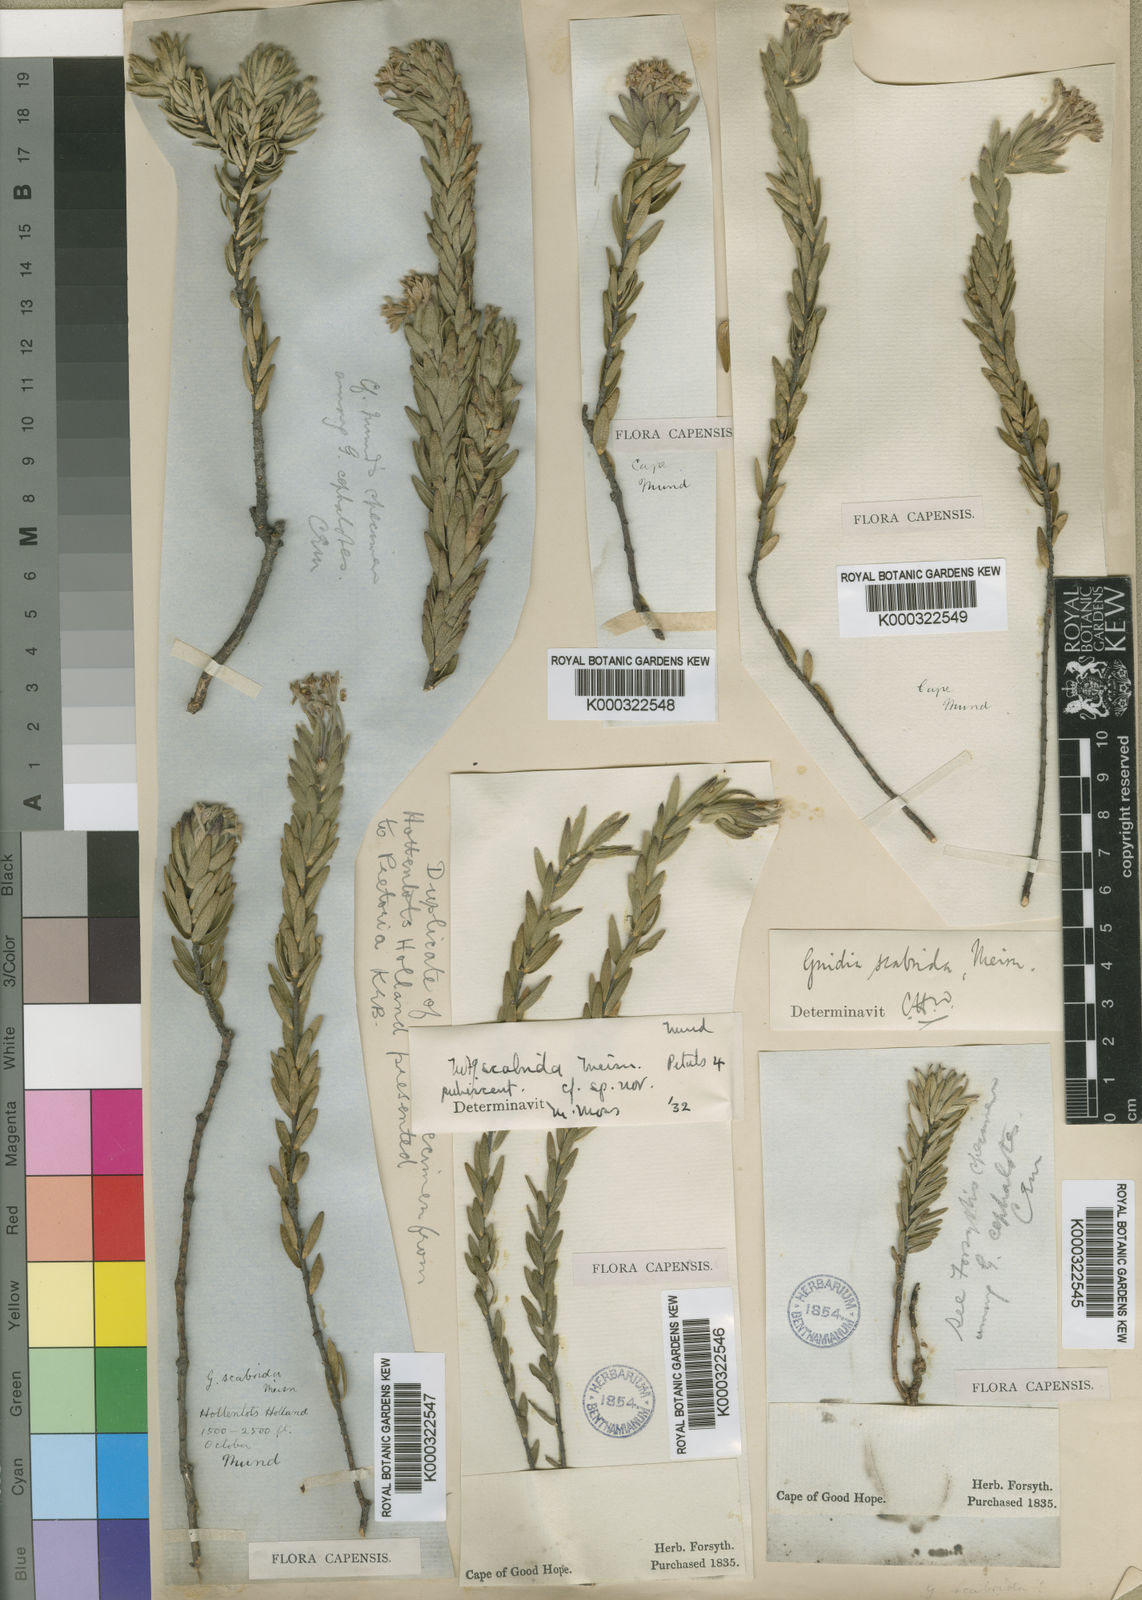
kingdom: Plantae
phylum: Tracheophyta
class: Magnoliopsida
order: Malvales
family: Thymelaeaceae
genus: Gnidia
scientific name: Gnidia scabrida
